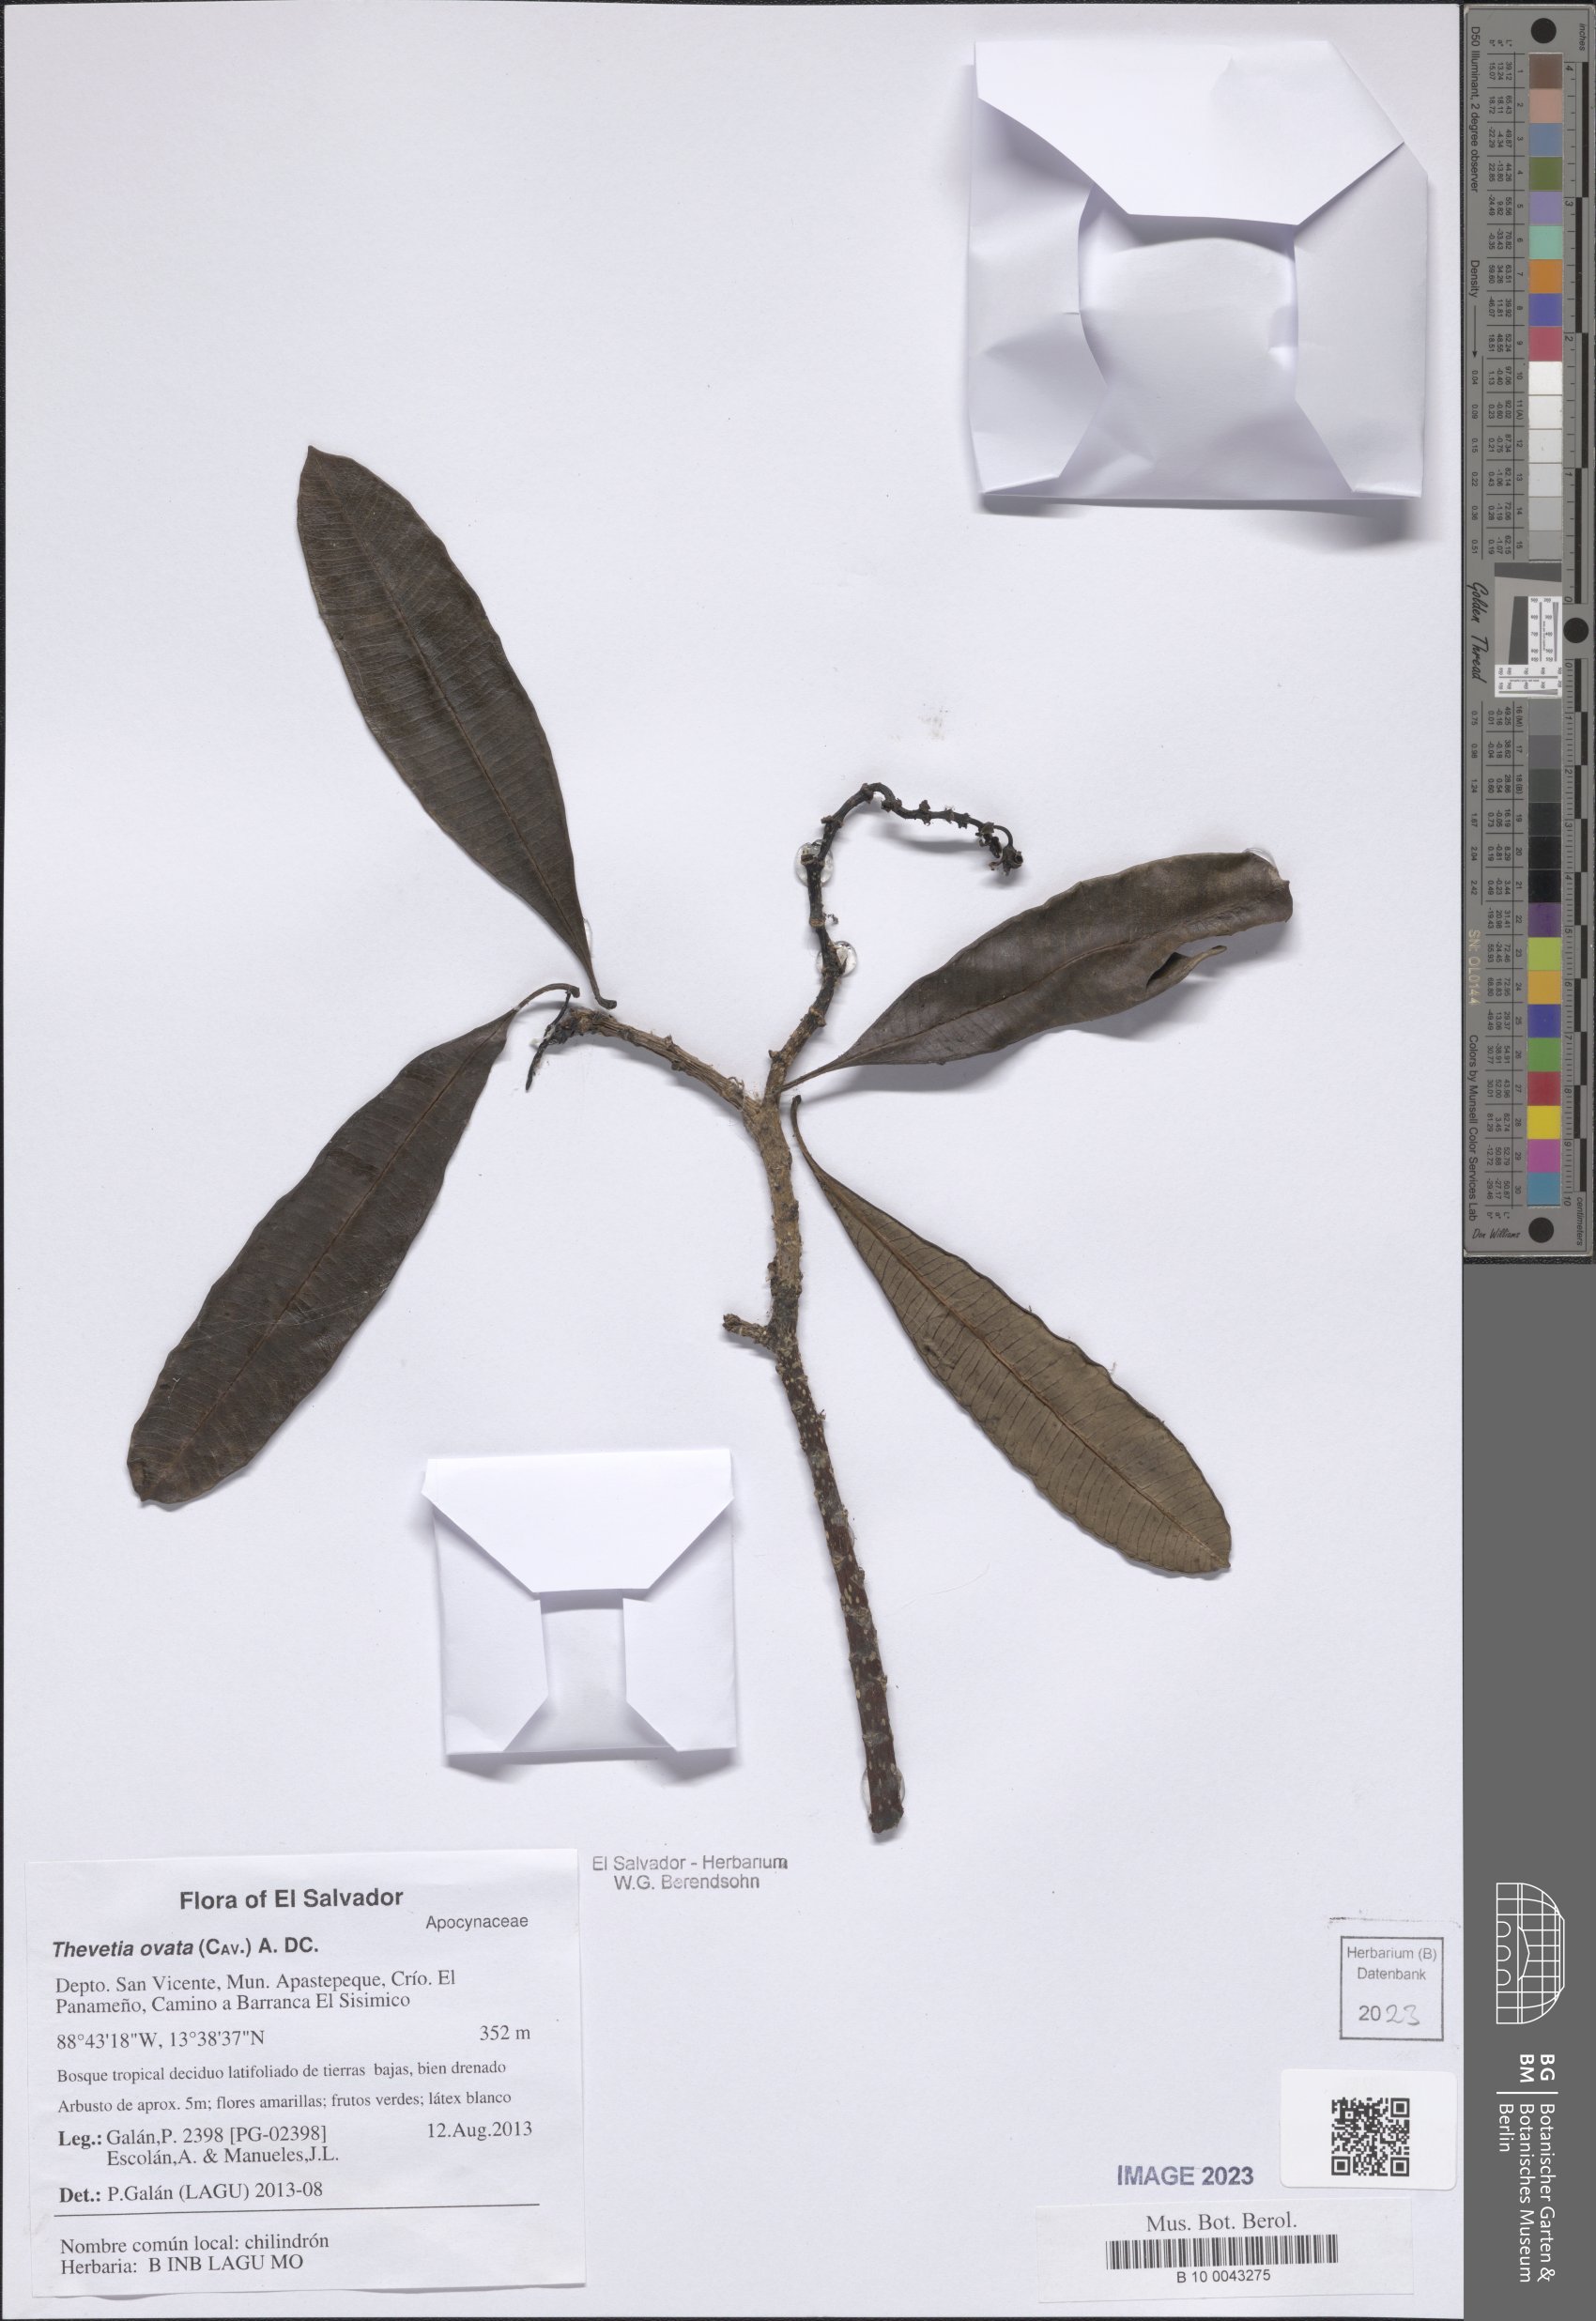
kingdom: Plantae
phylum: Tracheophyta
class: Magnoliopsida
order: Gentianales
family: Apocynaceae
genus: Cascabela
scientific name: Cascabela ovata
